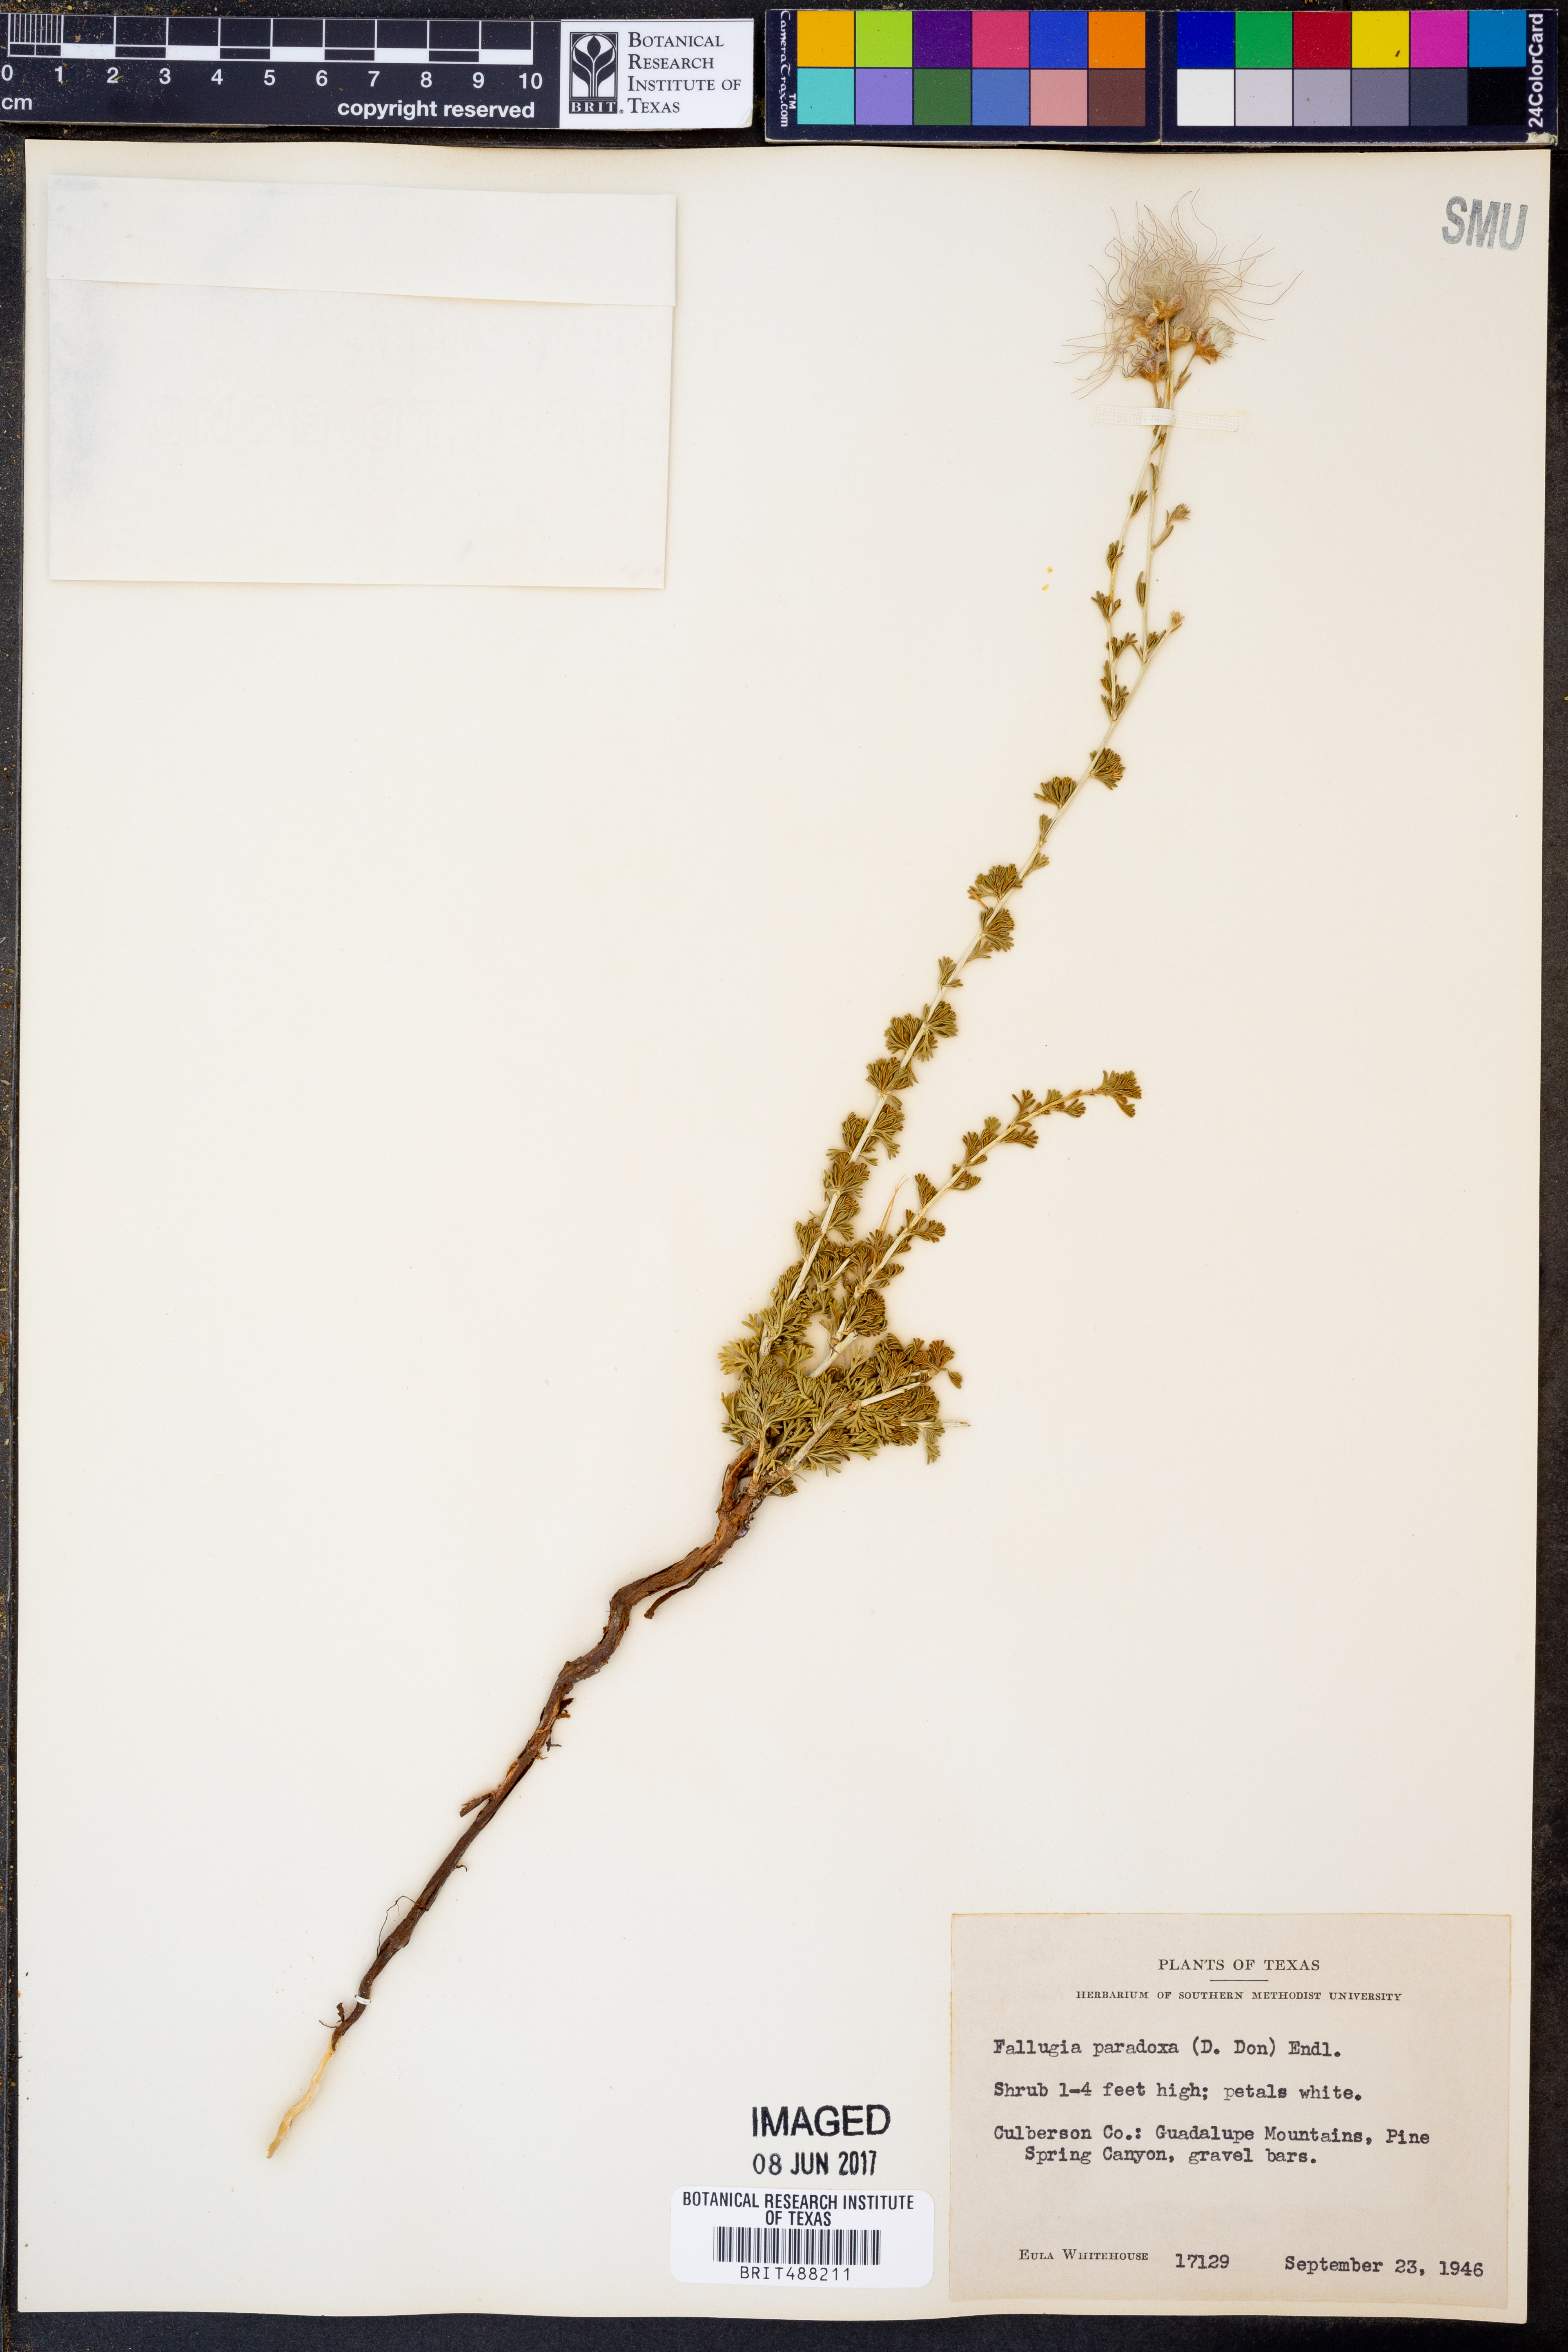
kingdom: Plantae
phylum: Tracheophyta
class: Magnoliopsida
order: Rosales
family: Rosaceae
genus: Fallugia
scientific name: Fallugia paradoxa
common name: Apache-plume
